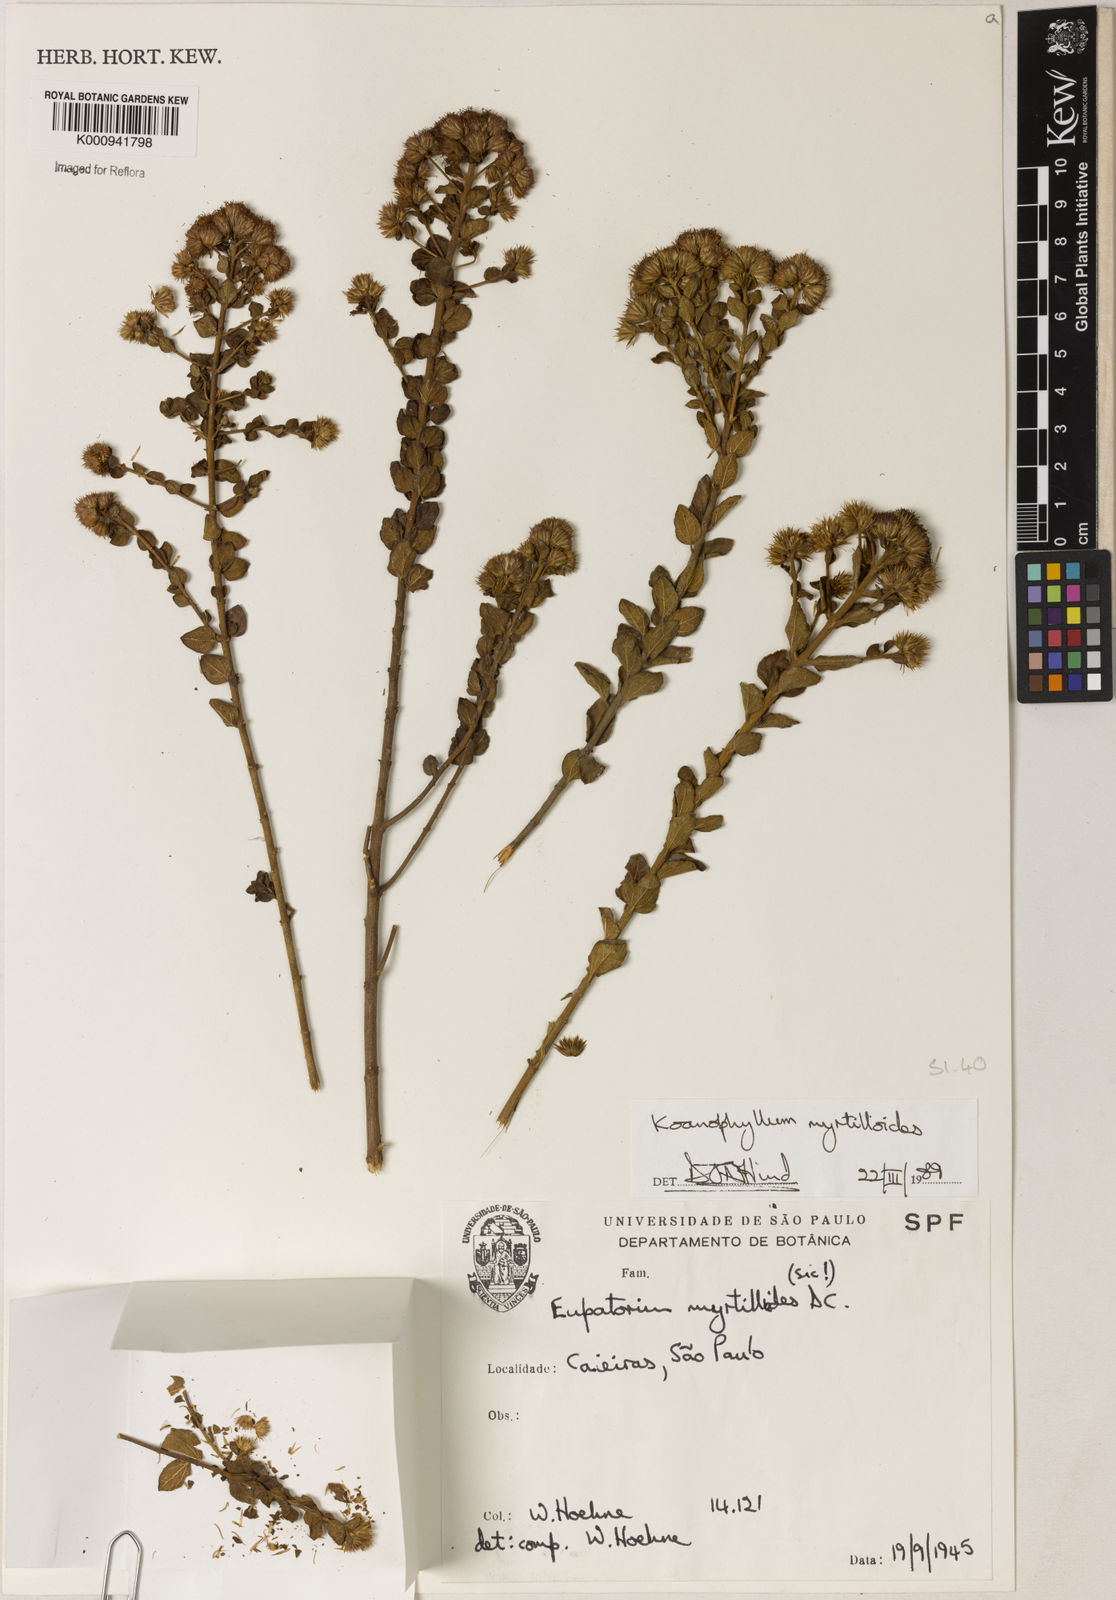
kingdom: Plantae
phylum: Tracheophyta
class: Magnoliopsida
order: Asterales
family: Asteraceae
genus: Koanophyllon
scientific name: Koanophyllon myrtilloides
